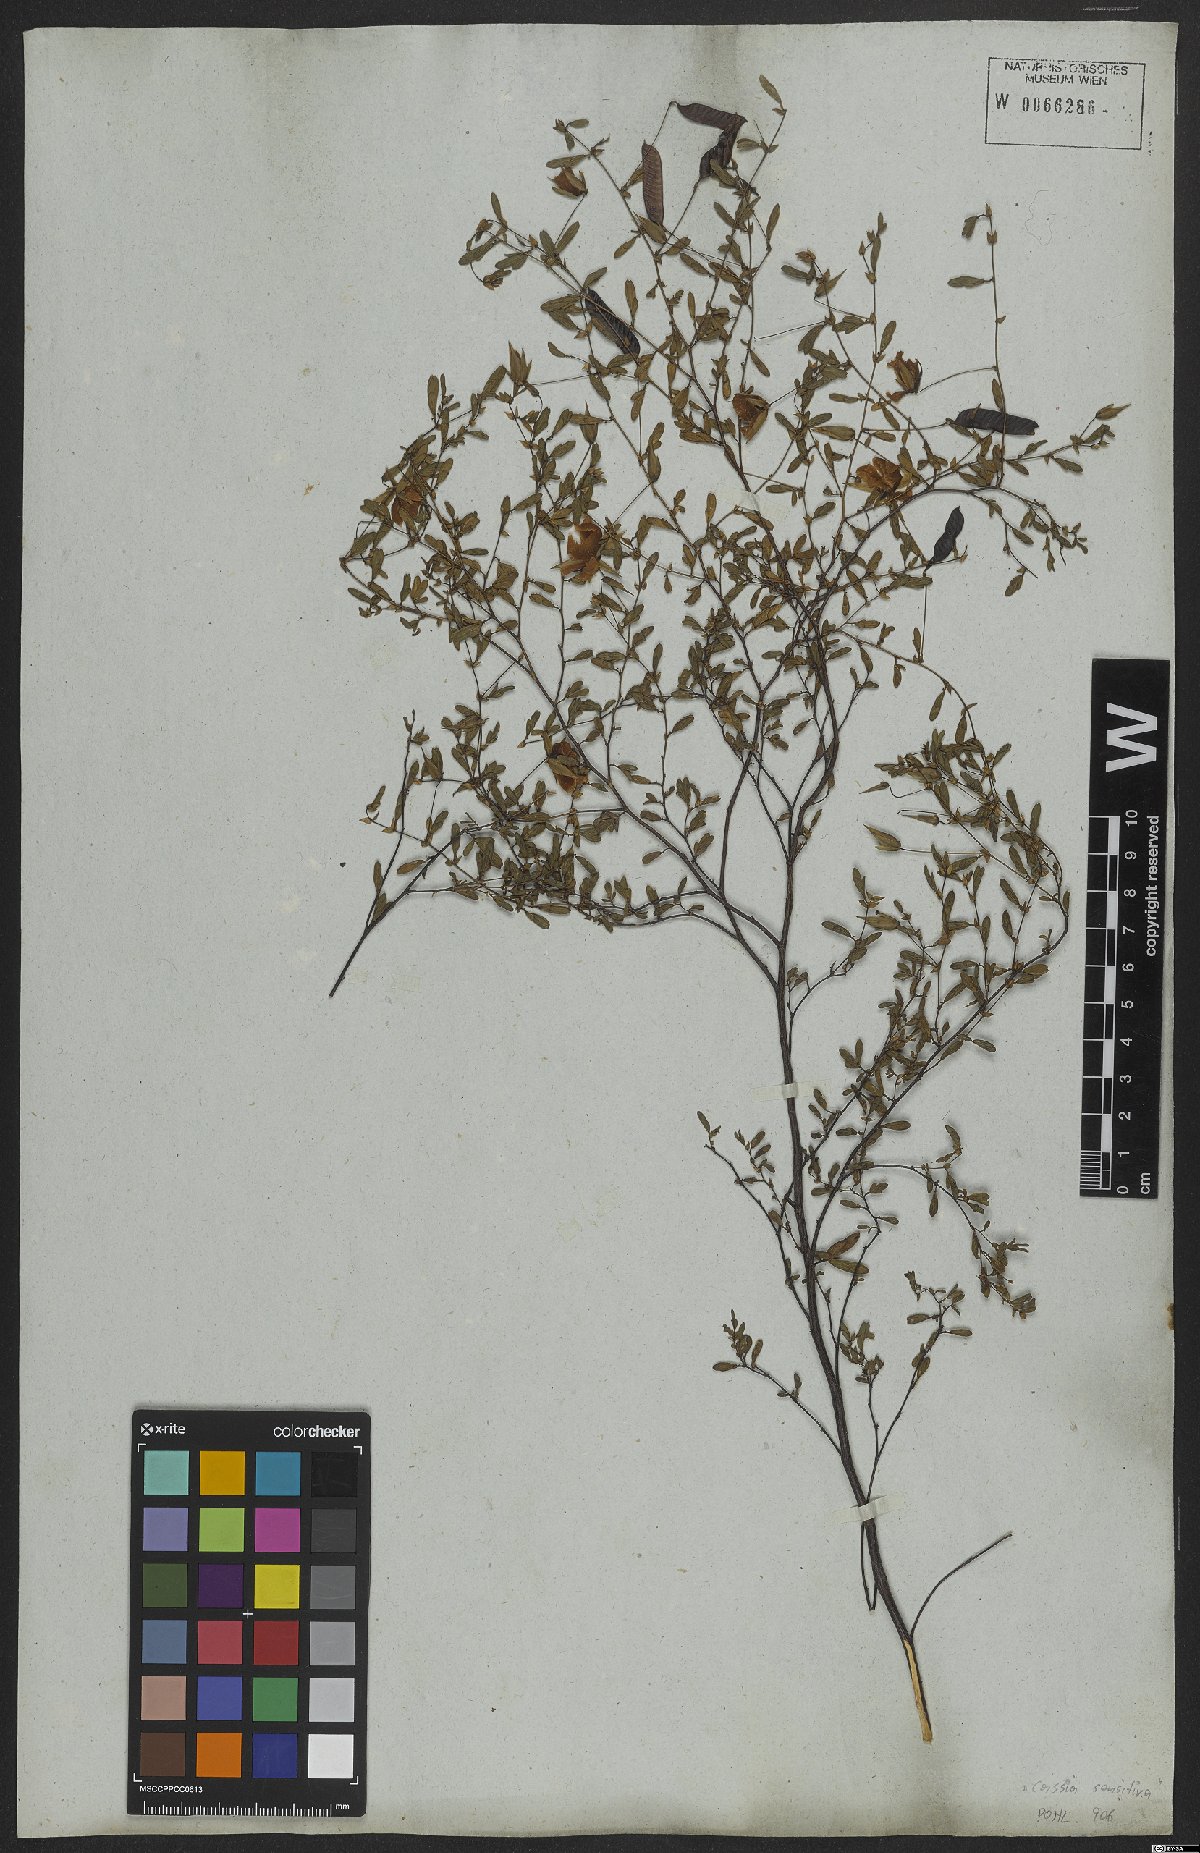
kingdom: Plantae
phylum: Tracheophyta
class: Magnoliopsida
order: Fabales
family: Fabaceae
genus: Senna
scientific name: Senna uniflora
